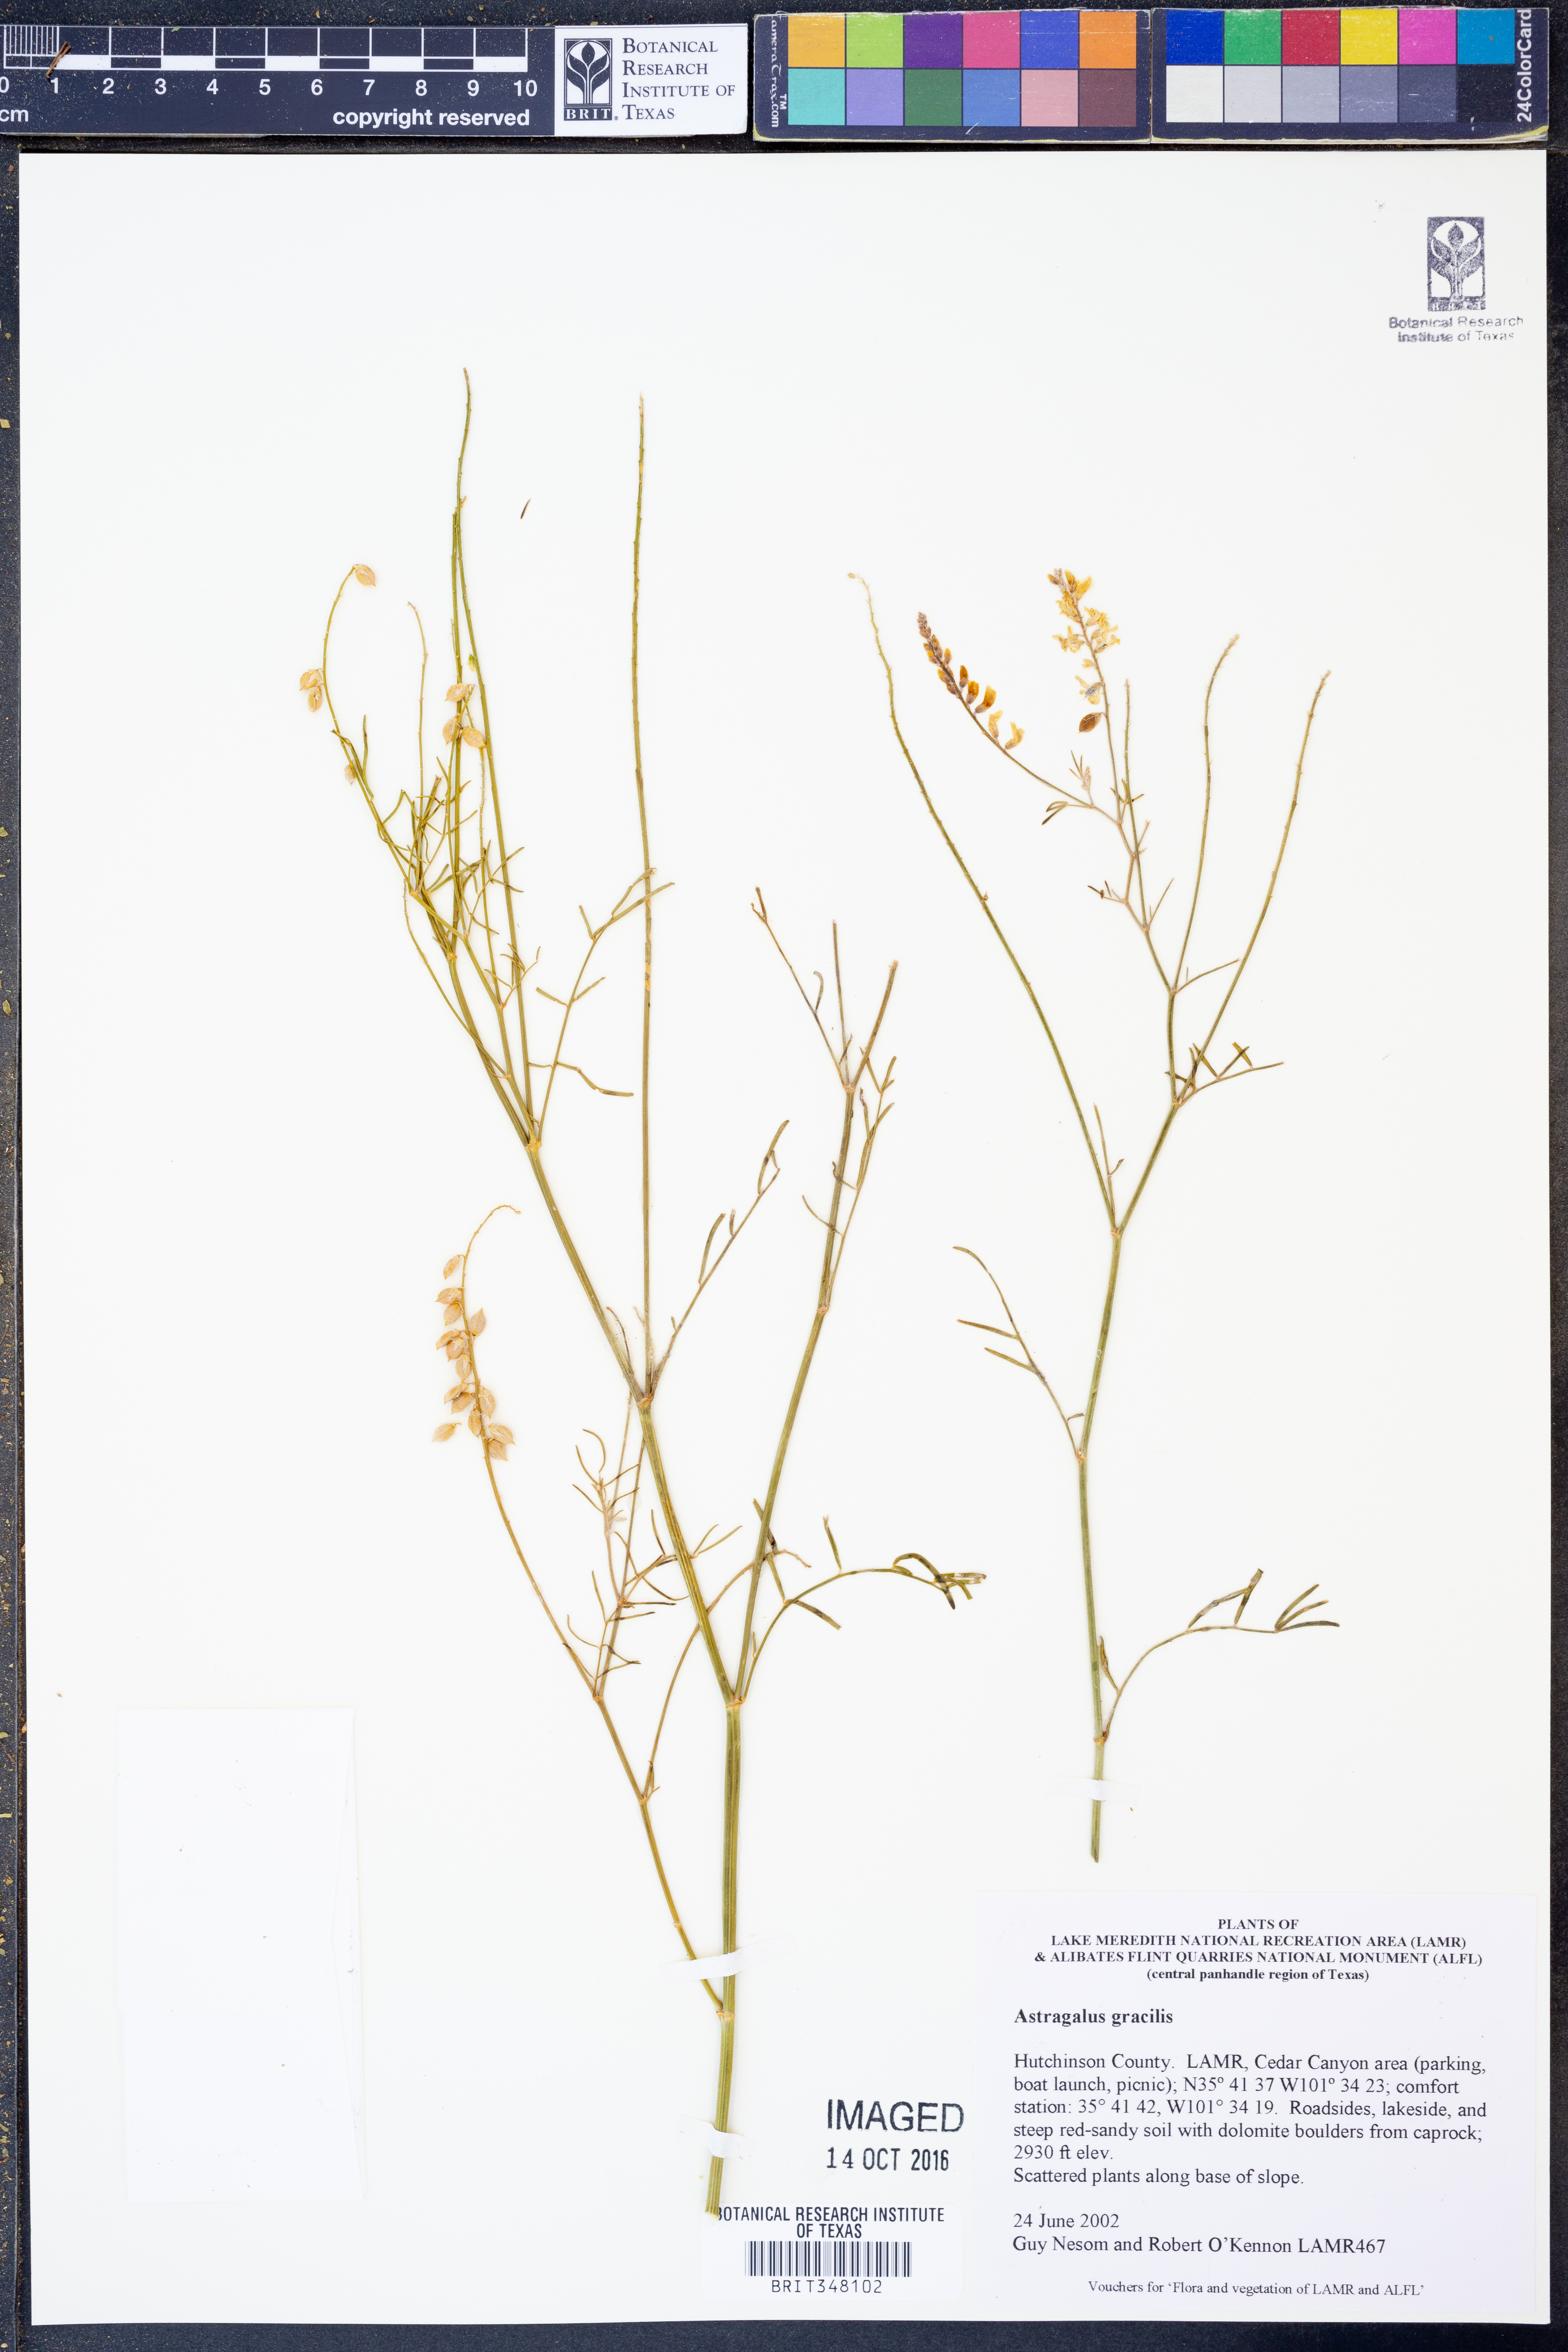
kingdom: Plantae
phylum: Tracheophyta
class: Magnoliopsida
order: Fabales
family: Fabaceae
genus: Astragalus
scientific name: Astragalus gracilis
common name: Slender milk-vetch
